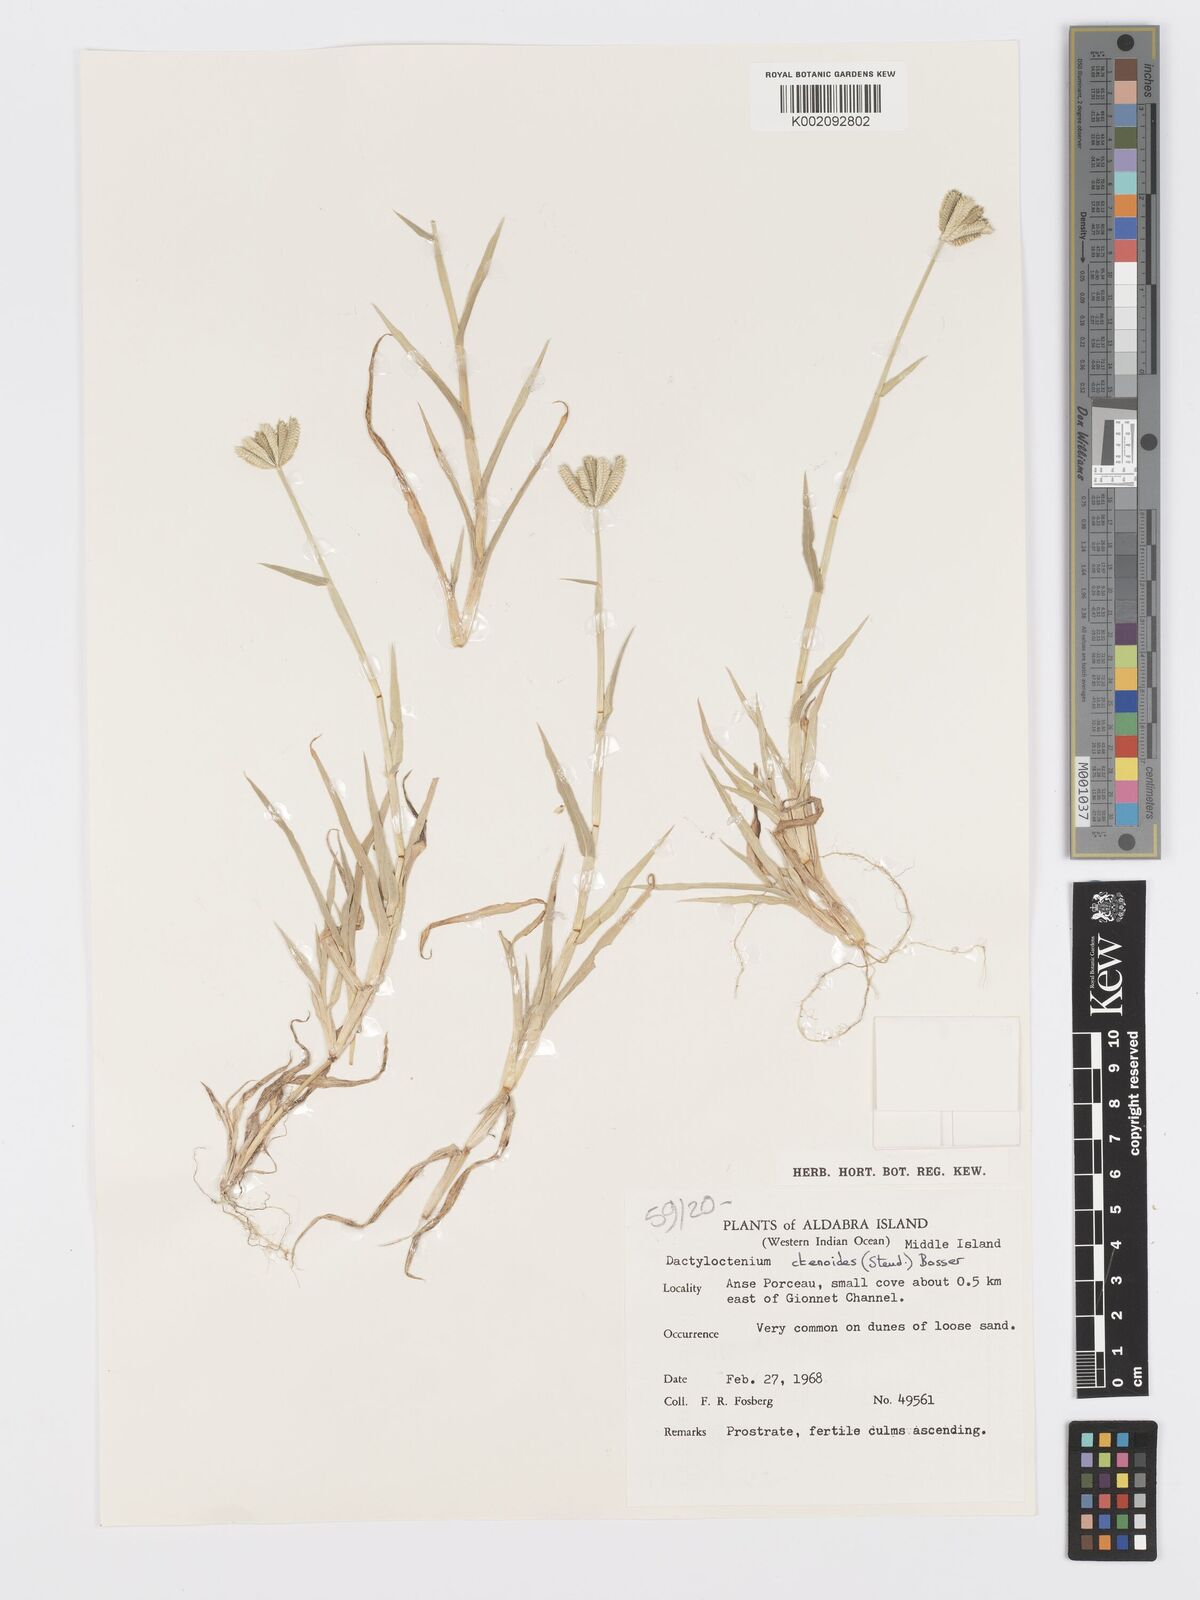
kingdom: Plantae
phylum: Tracheophyta
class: Liliopsida
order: Poales
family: Poaceae
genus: Dactyloctenium
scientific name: Dactyloctenium ctenoides
